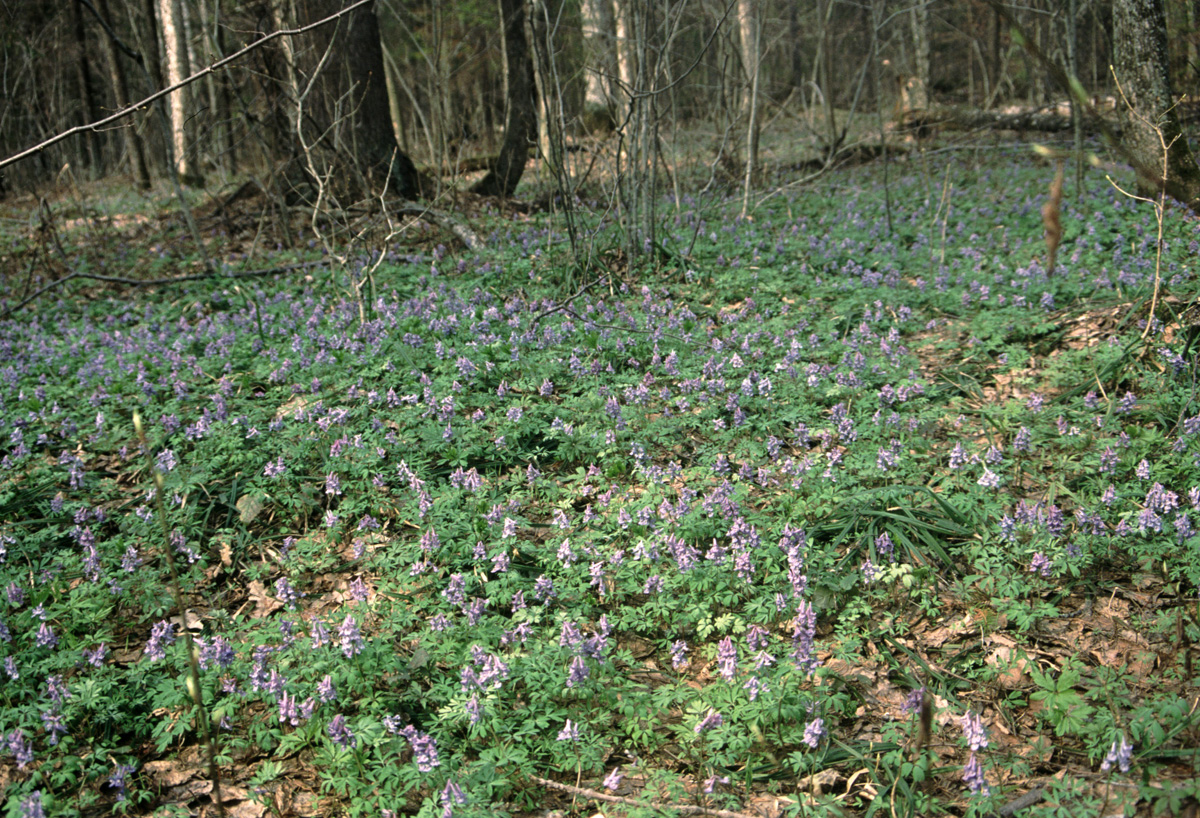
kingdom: Plantae
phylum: Tracheophyta
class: Magnoliopsida
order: Ranunculales
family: Papaveraceae
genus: Corydalis
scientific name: Corydalis solida
